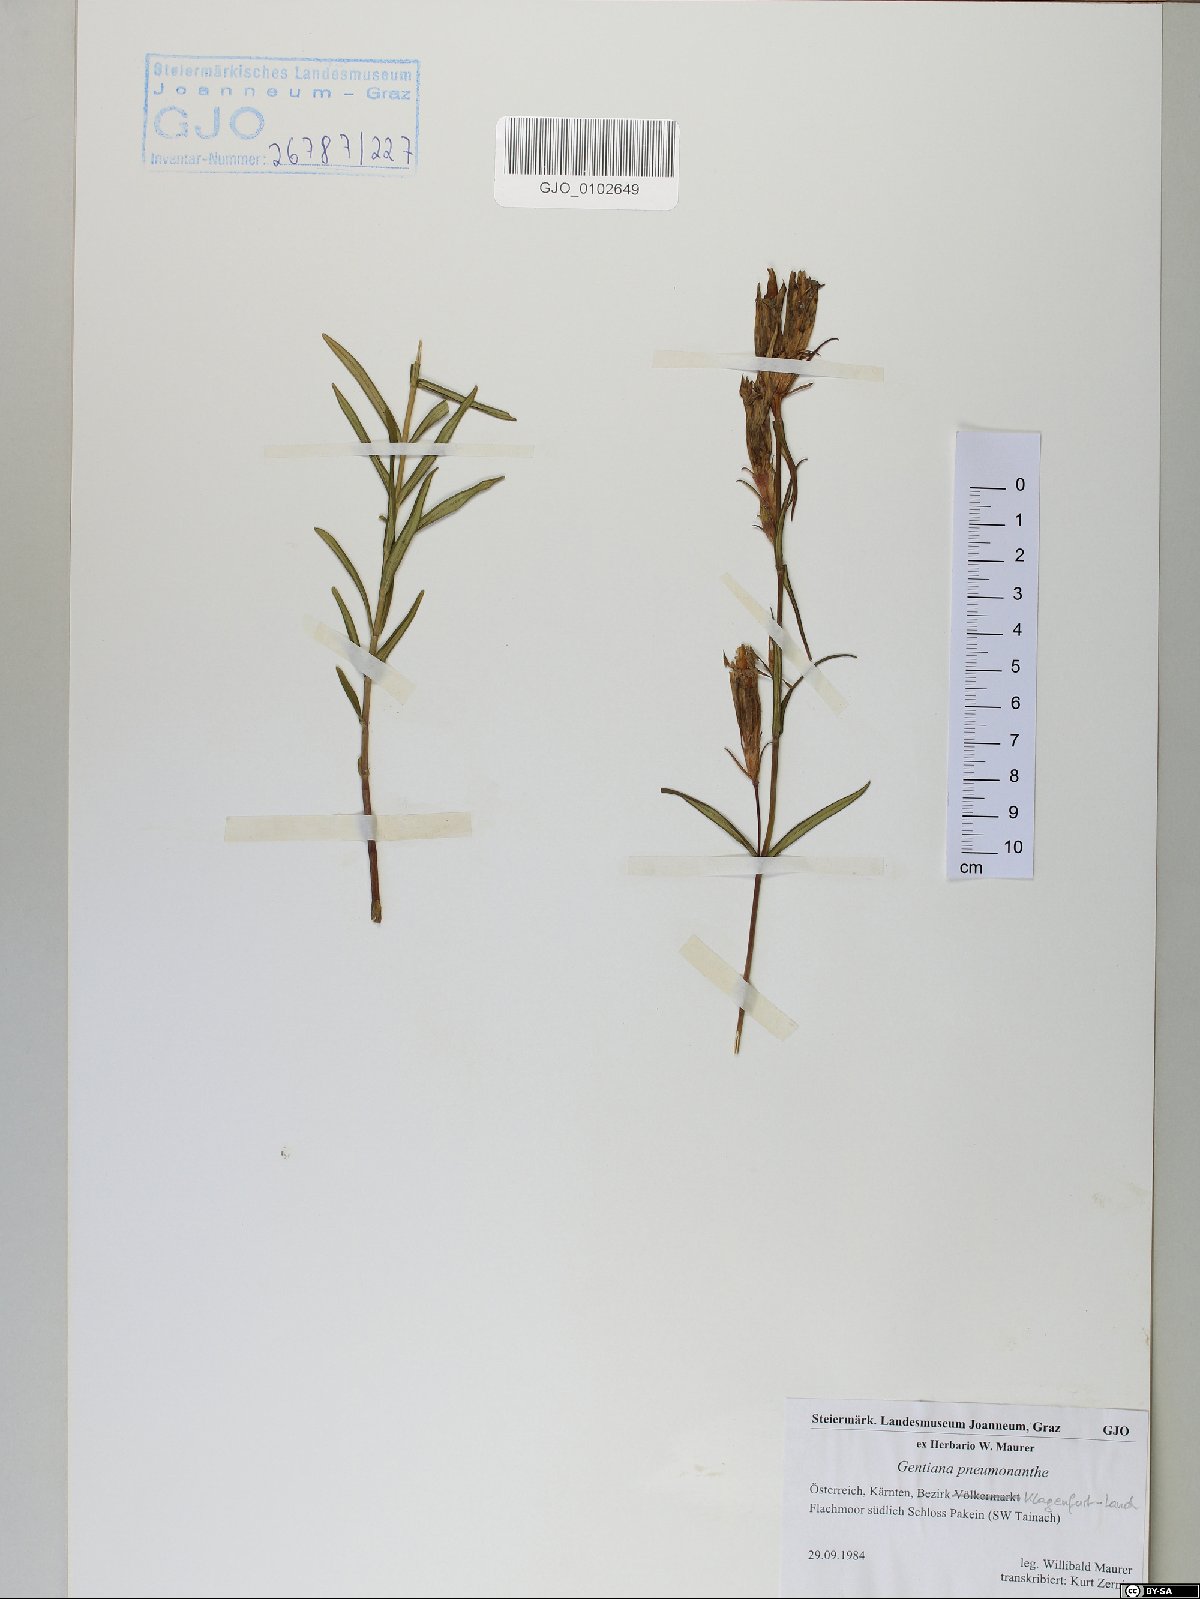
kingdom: Plantae
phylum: Tracheophyta
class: Magnoliopsida
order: Gentianales
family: Gentianaceae
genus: Gentiana
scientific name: Gentiana pneumonanthe
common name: Marsh gentian
